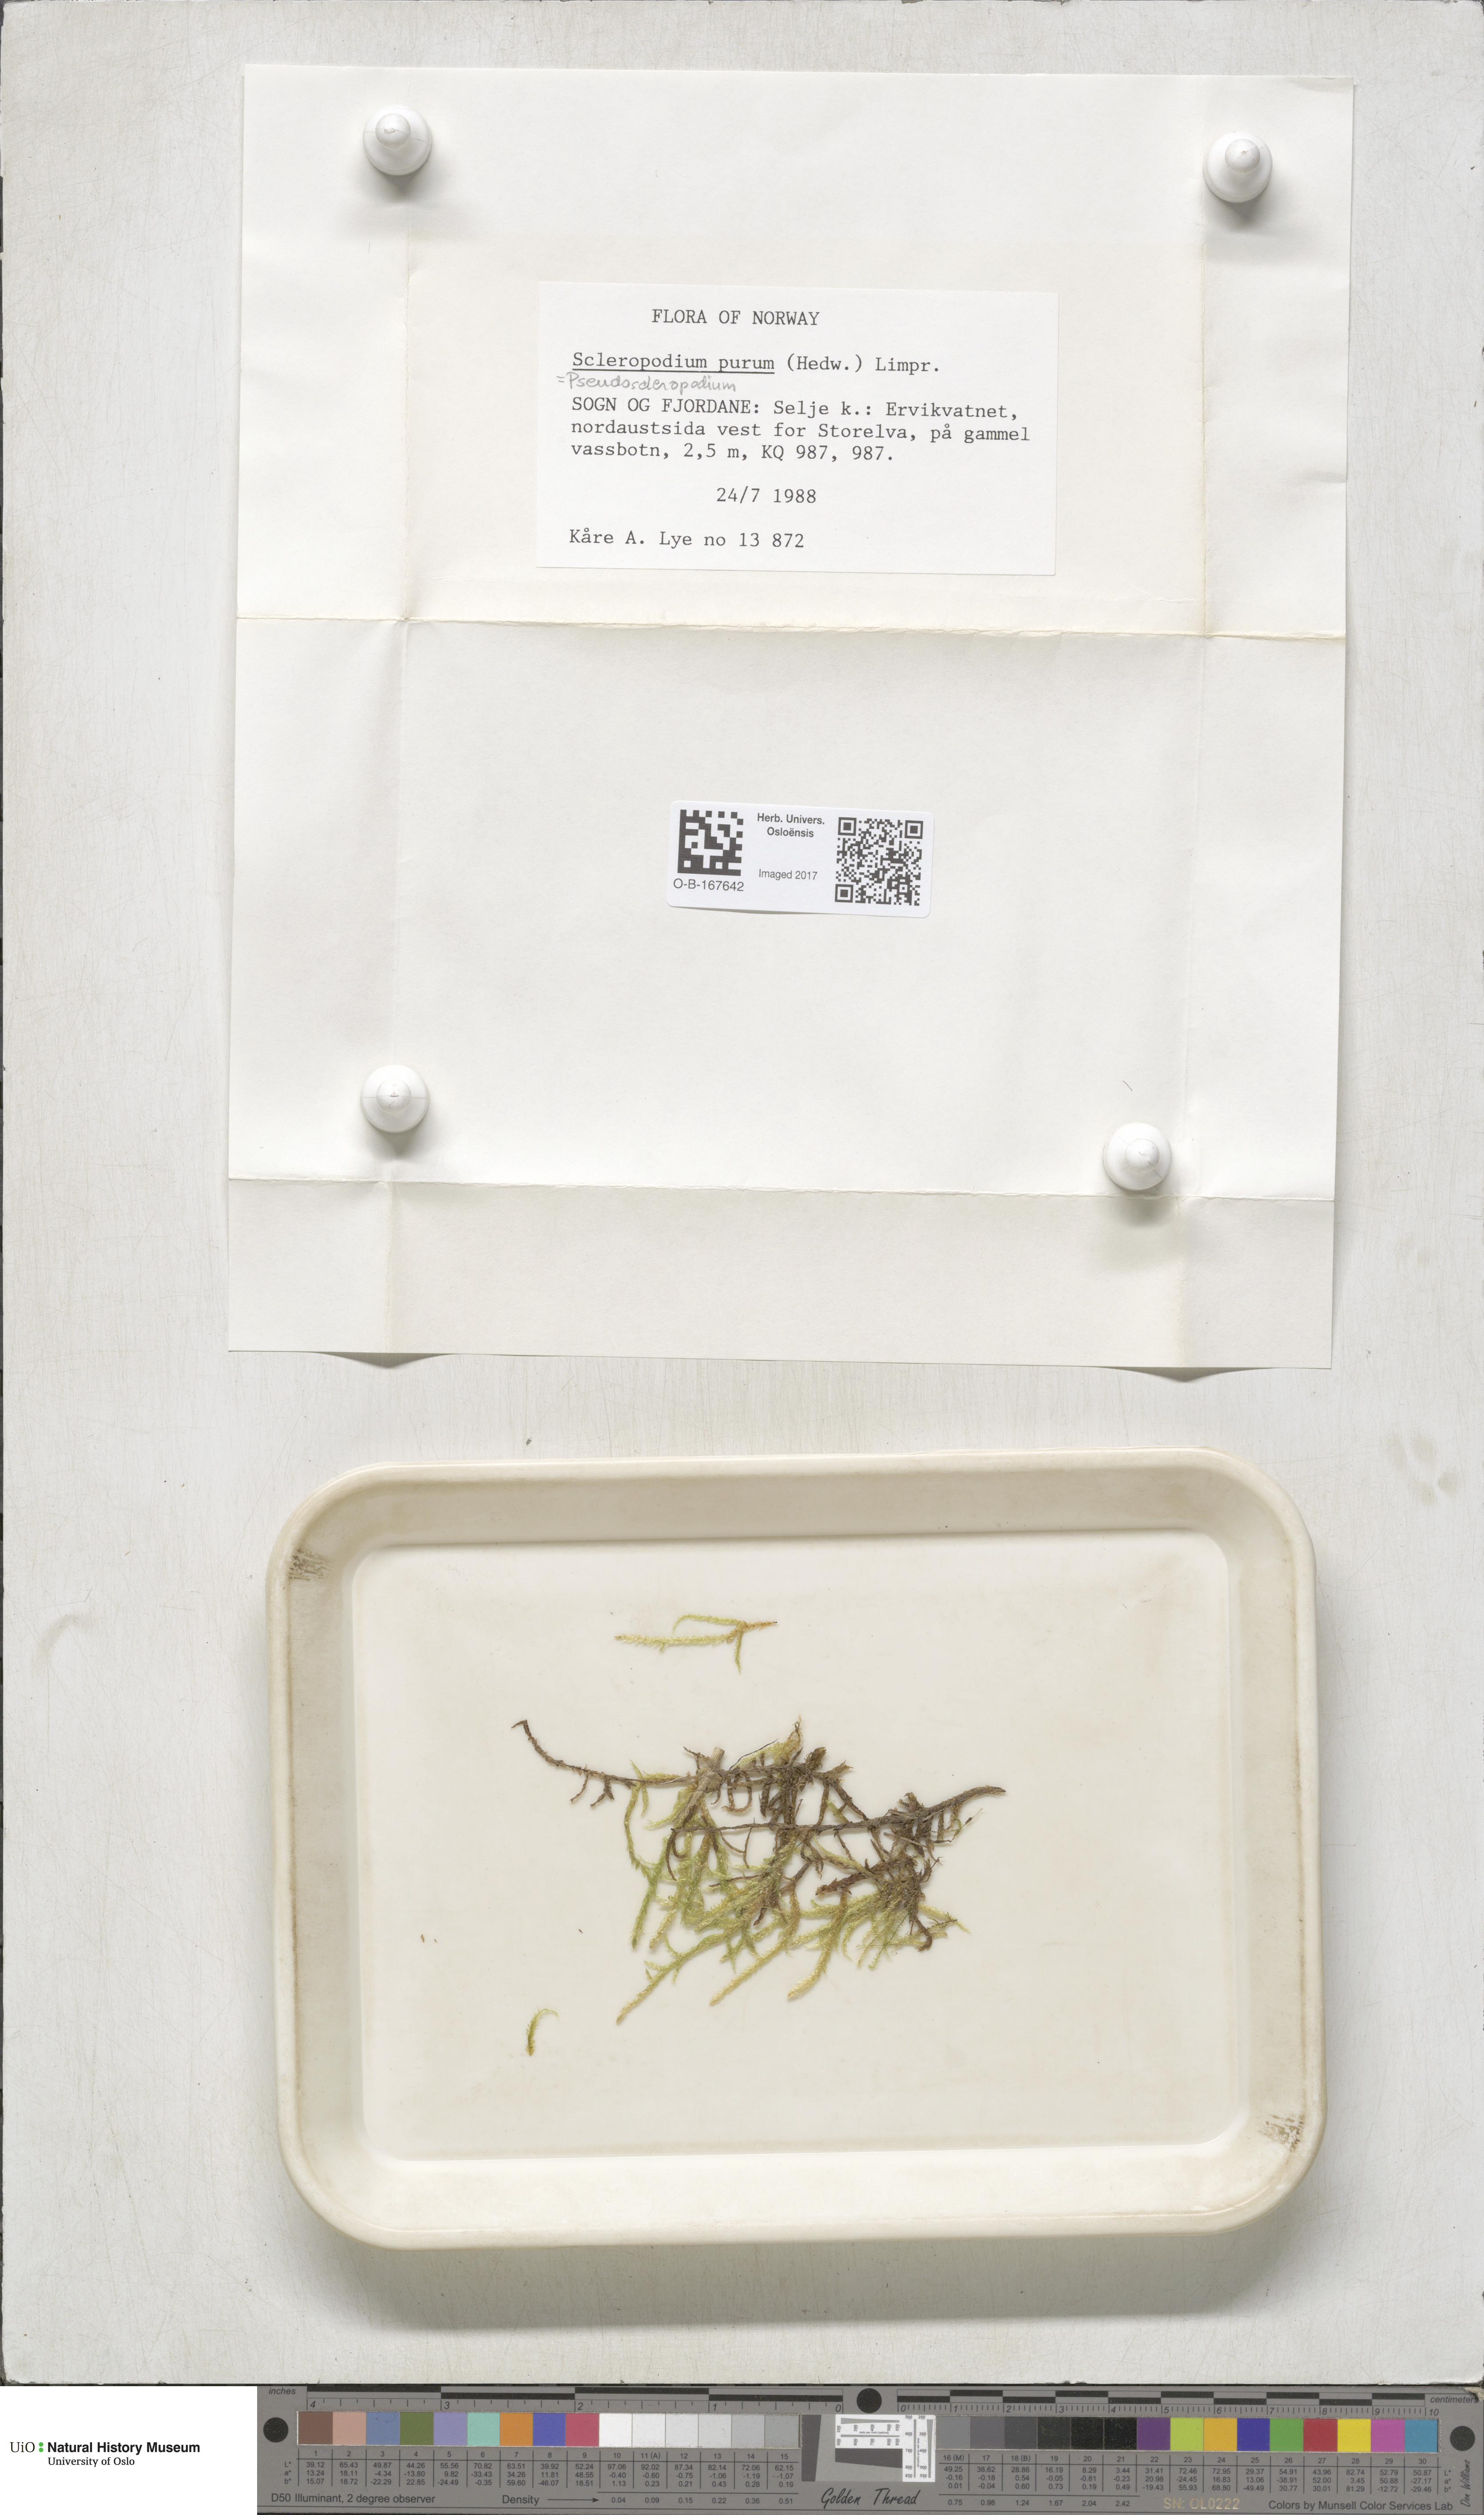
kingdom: Plantae
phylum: Bryophyta
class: Bryopsida
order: Hypnales
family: Brachytheciaceae
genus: Pseudoscleropodium
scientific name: Pseudoscleropodium purum
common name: Neat feather-moss
